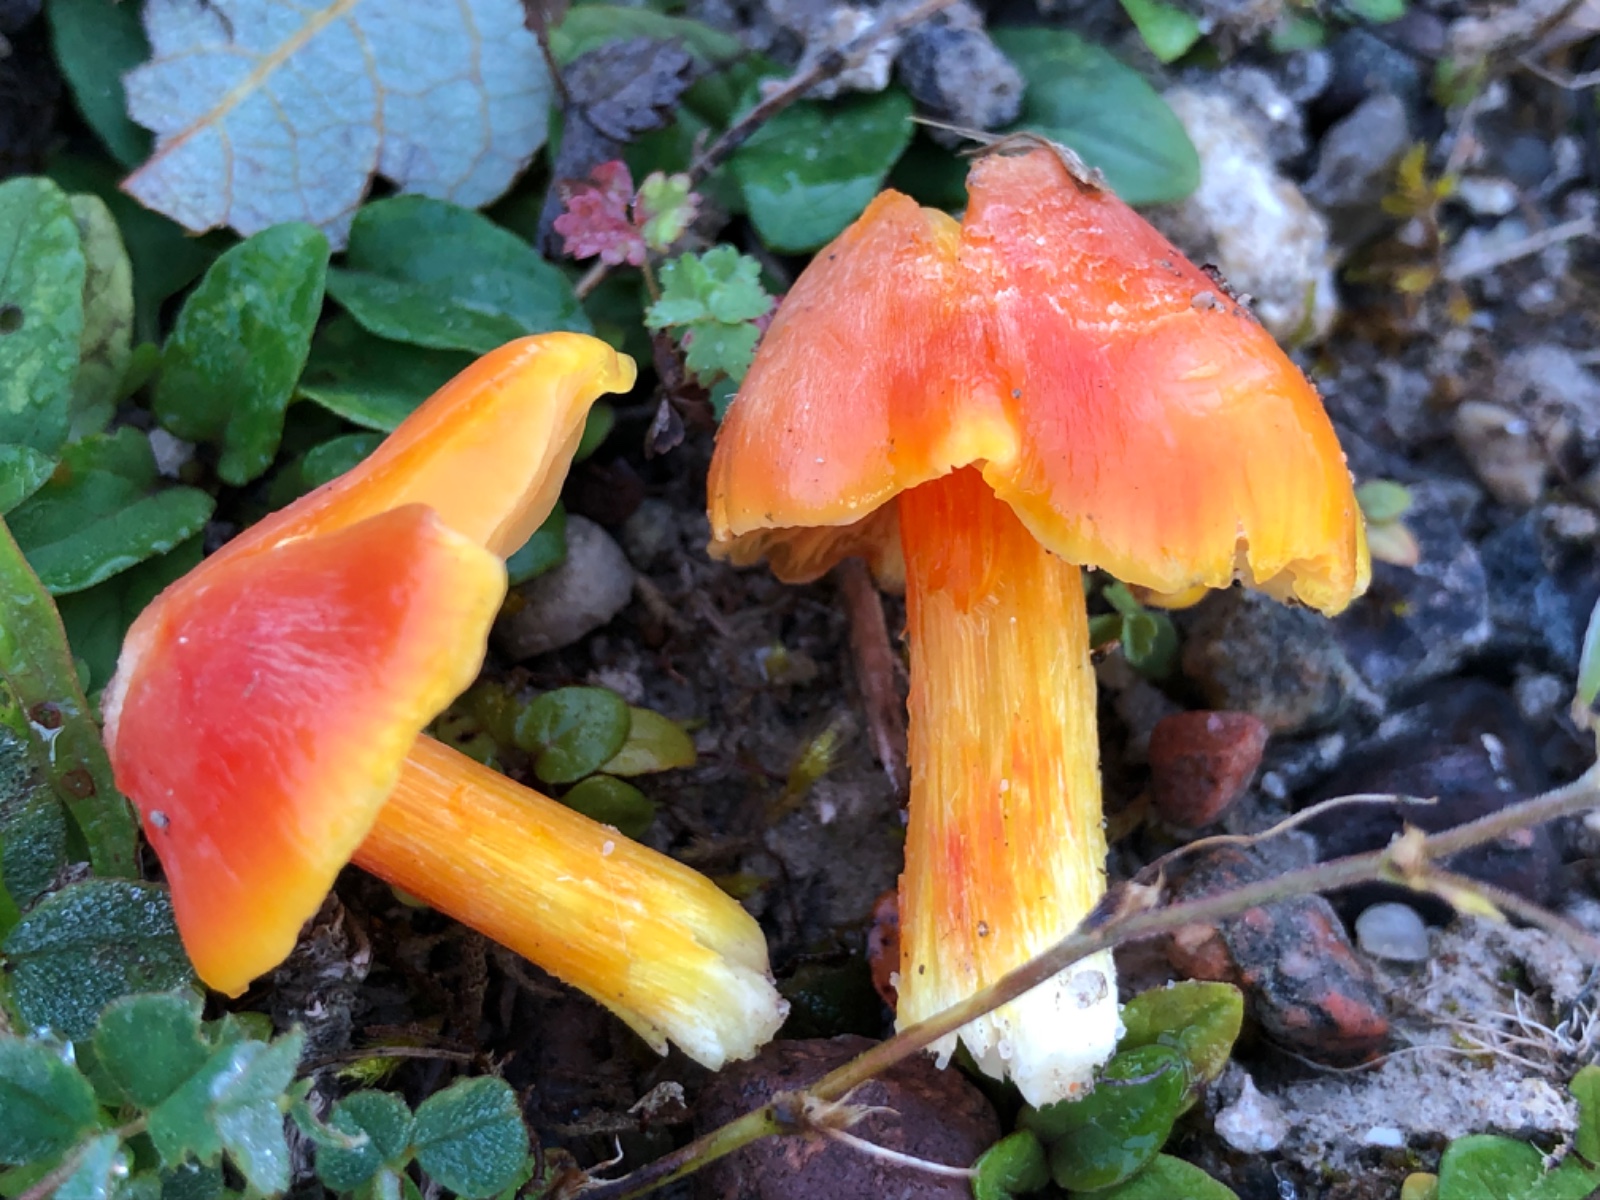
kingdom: Fungi
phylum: Basidiomycota
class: Agaricomycetes
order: Agaricales
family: Hygrophoraceae
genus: Hygrocybe
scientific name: Hygrocybe
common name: vokshat
